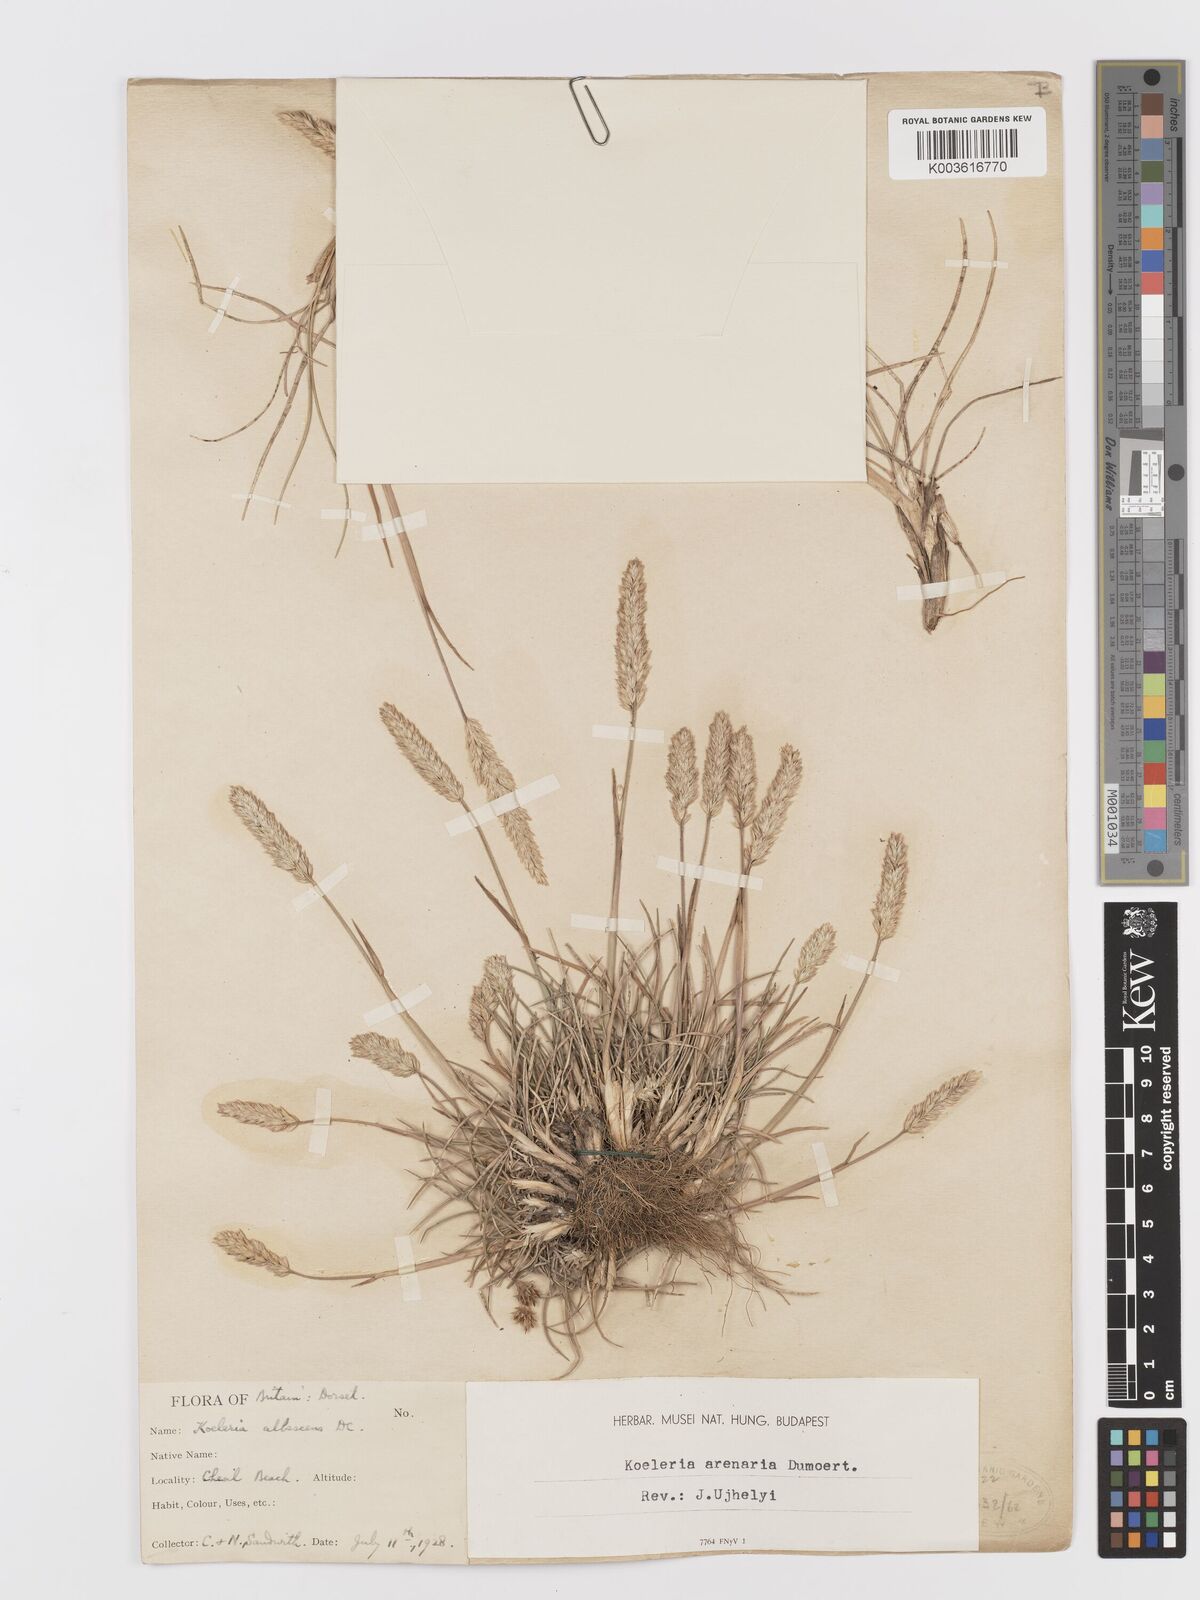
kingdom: Plantae
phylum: Tracheophyta
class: Liliopsida
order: Poales
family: Poaceae
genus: Koeleria
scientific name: Koeleria
